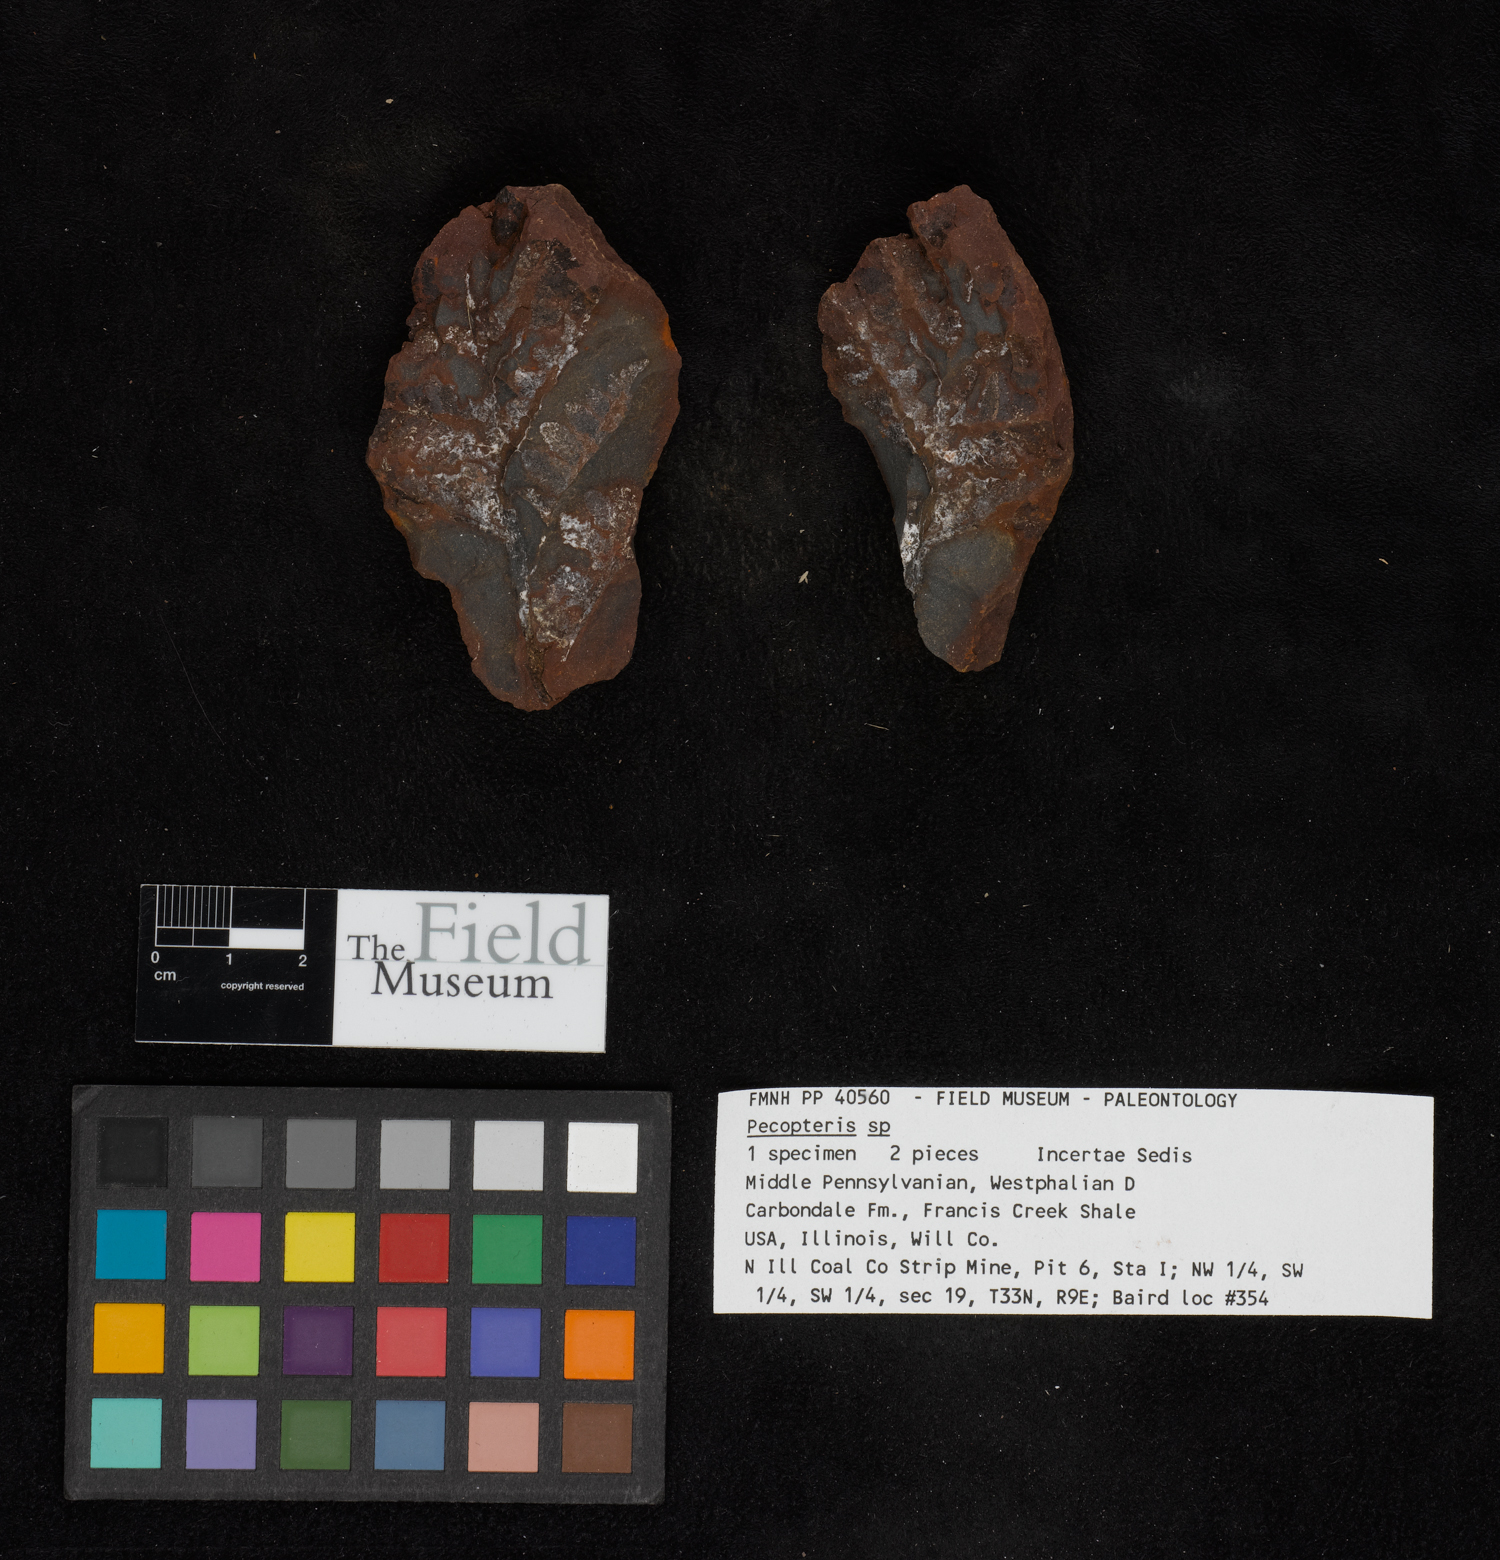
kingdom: Plantae
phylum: Tracheophyta
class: Polypodiopsida
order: Marattiales
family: Asterothecaceae
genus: Pecopteris
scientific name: Pecopteris
